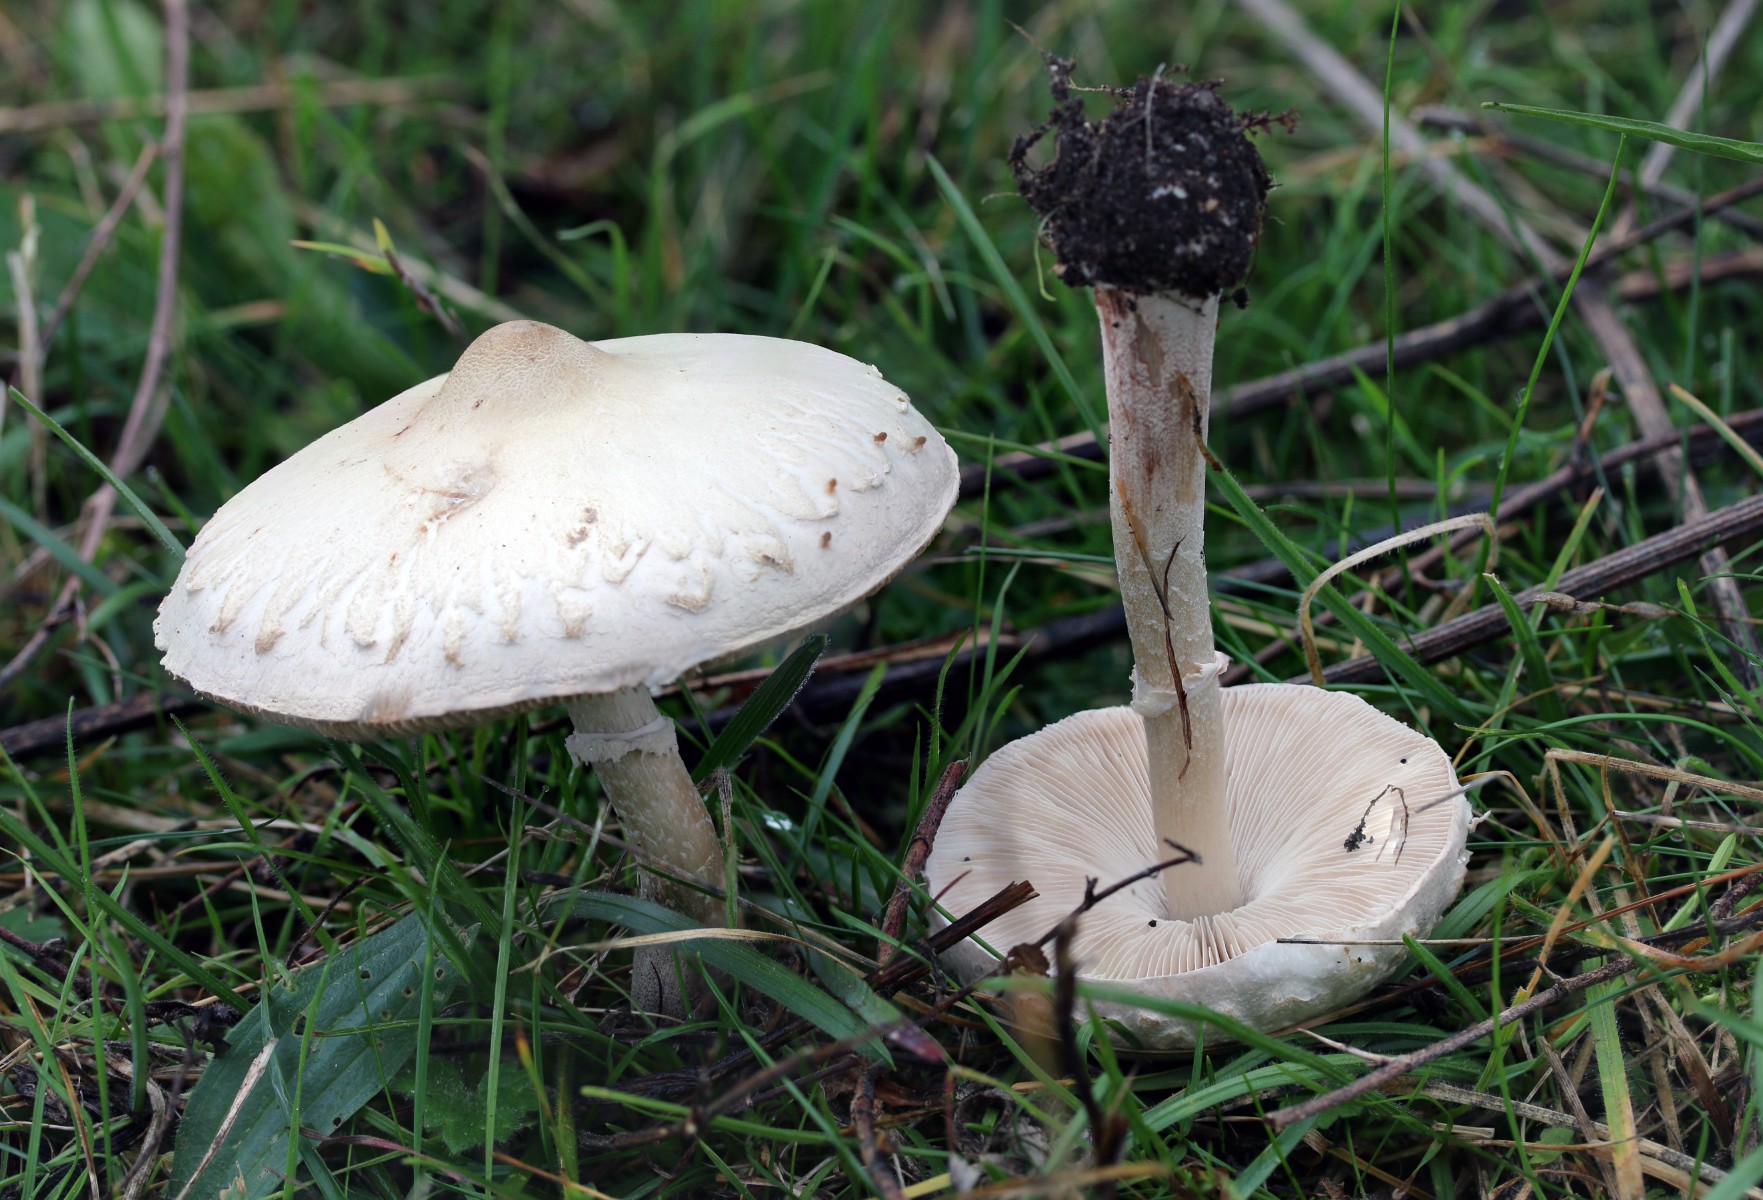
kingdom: Fungi
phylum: Basidiomycota
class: Agaricomycetes
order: Agaricales
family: Agaricaceae
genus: Macrolepiota
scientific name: Macrolepiota excoriata
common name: mark-kæmpeparasolhat
